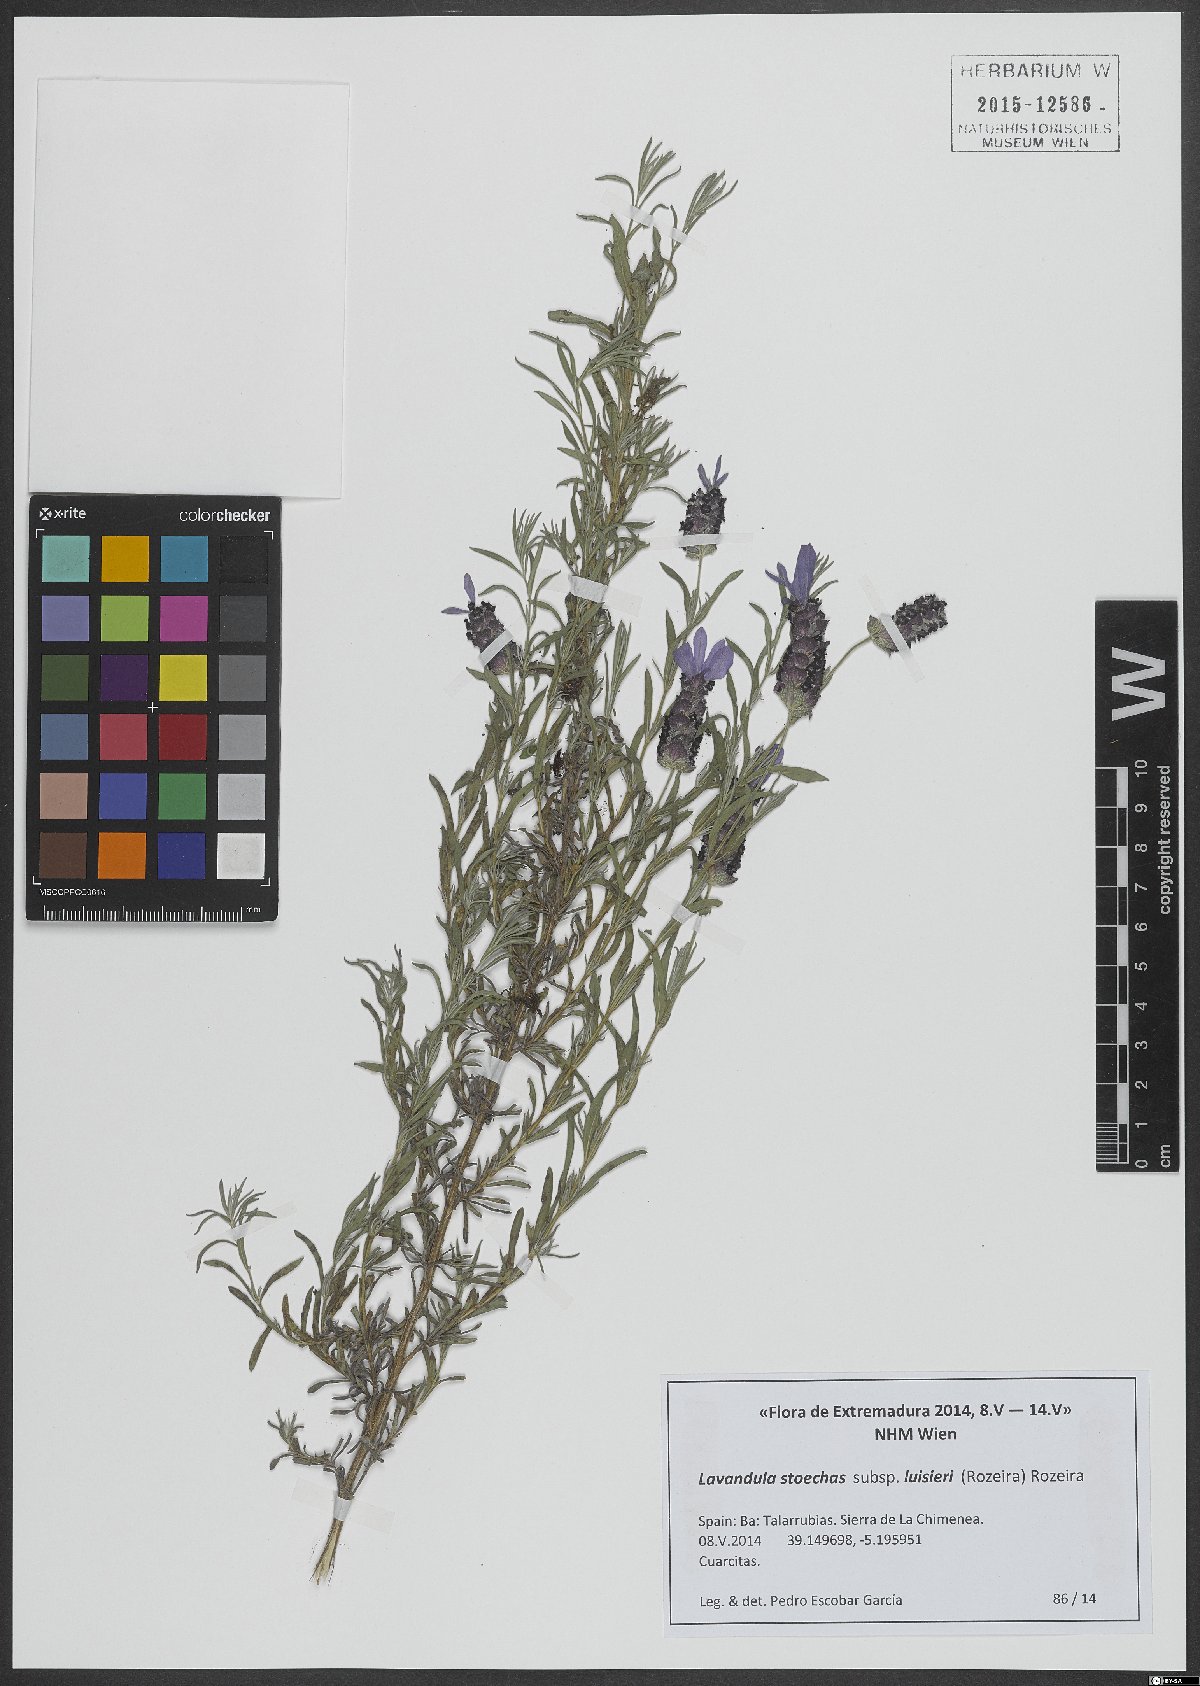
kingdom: Plantae
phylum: Tracheophyta
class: Magnoliopsida
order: Lamiales
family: Lamiaceae
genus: Lavandula
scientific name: Lavandula stoechas
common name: French lavender
